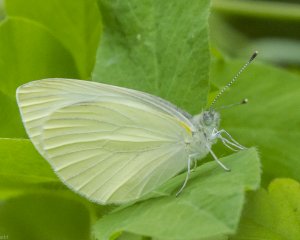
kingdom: Animalia
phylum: Arthropoda
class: Insecta
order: Lepidoptera
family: Pieridae
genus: Pieris
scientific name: Pieris rapae
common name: Cabbage White
